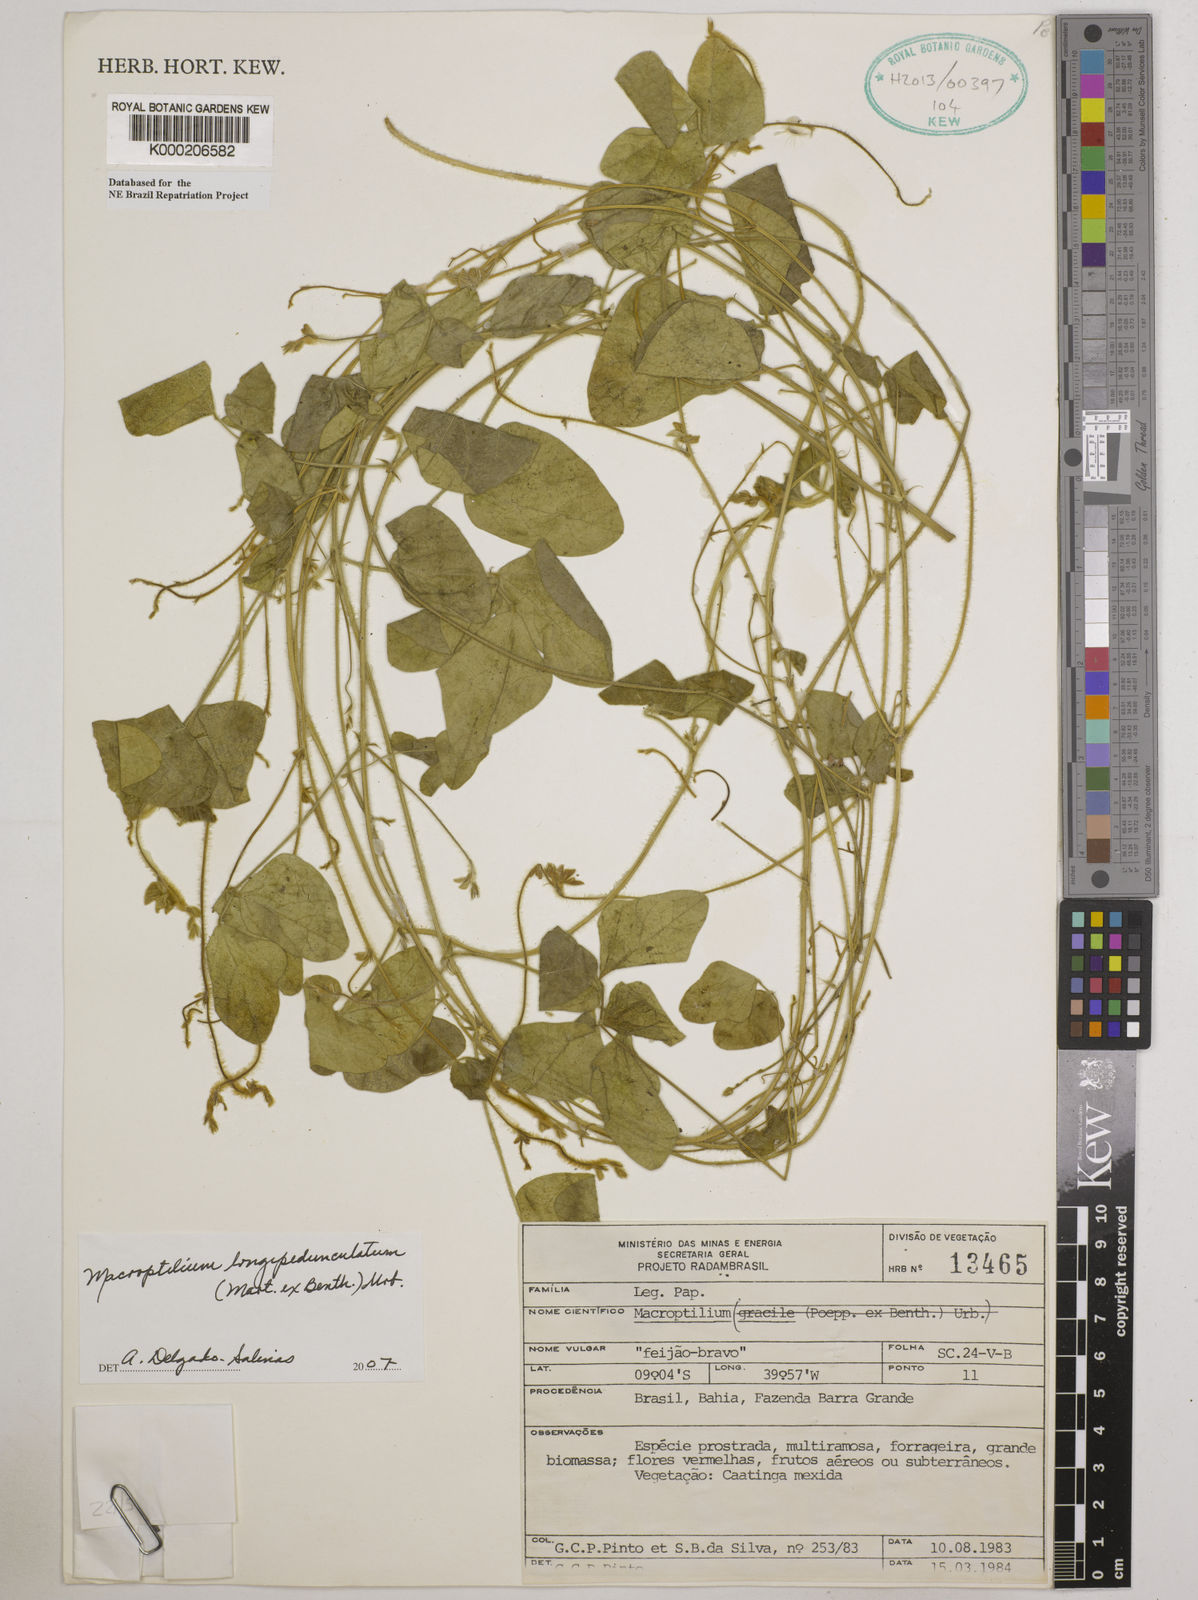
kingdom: Plantae
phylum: Tracheophyta
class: Magnoliopsida
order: Fabales
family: Fabaceae
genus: Macroptilium
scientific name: Macroptilium
